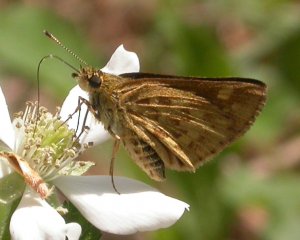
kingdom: Animalia
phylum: Arthropoda
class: Insecta
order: Lepidoptera
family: Hesperiidae
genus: Mastor
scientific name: Mastor carolina
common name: Carolina Roadside-Skipper
